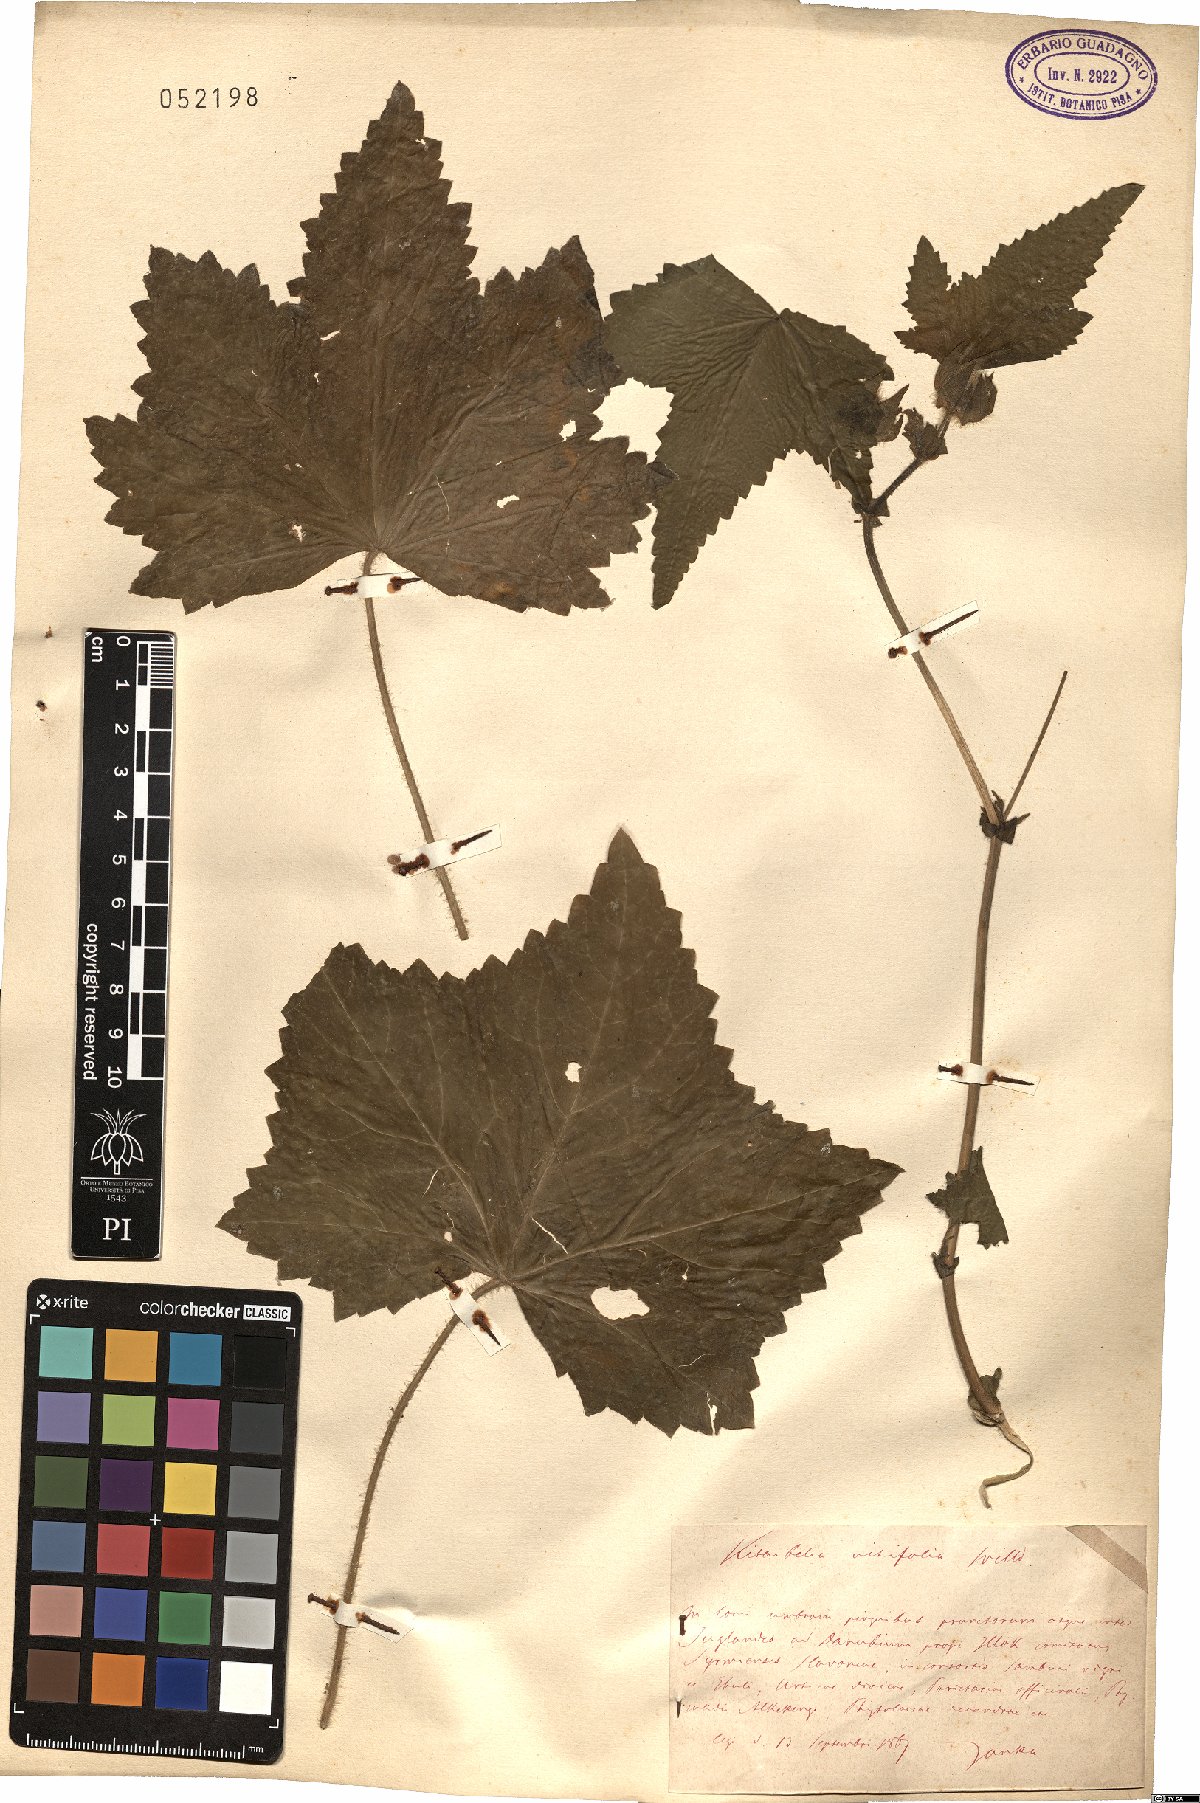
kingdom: Plantae
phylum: Tracheophyta
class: Magnoliopsida
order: Malvales
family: Malvaceae
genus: Kitaibela
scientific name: Kitaibela vitifolia
